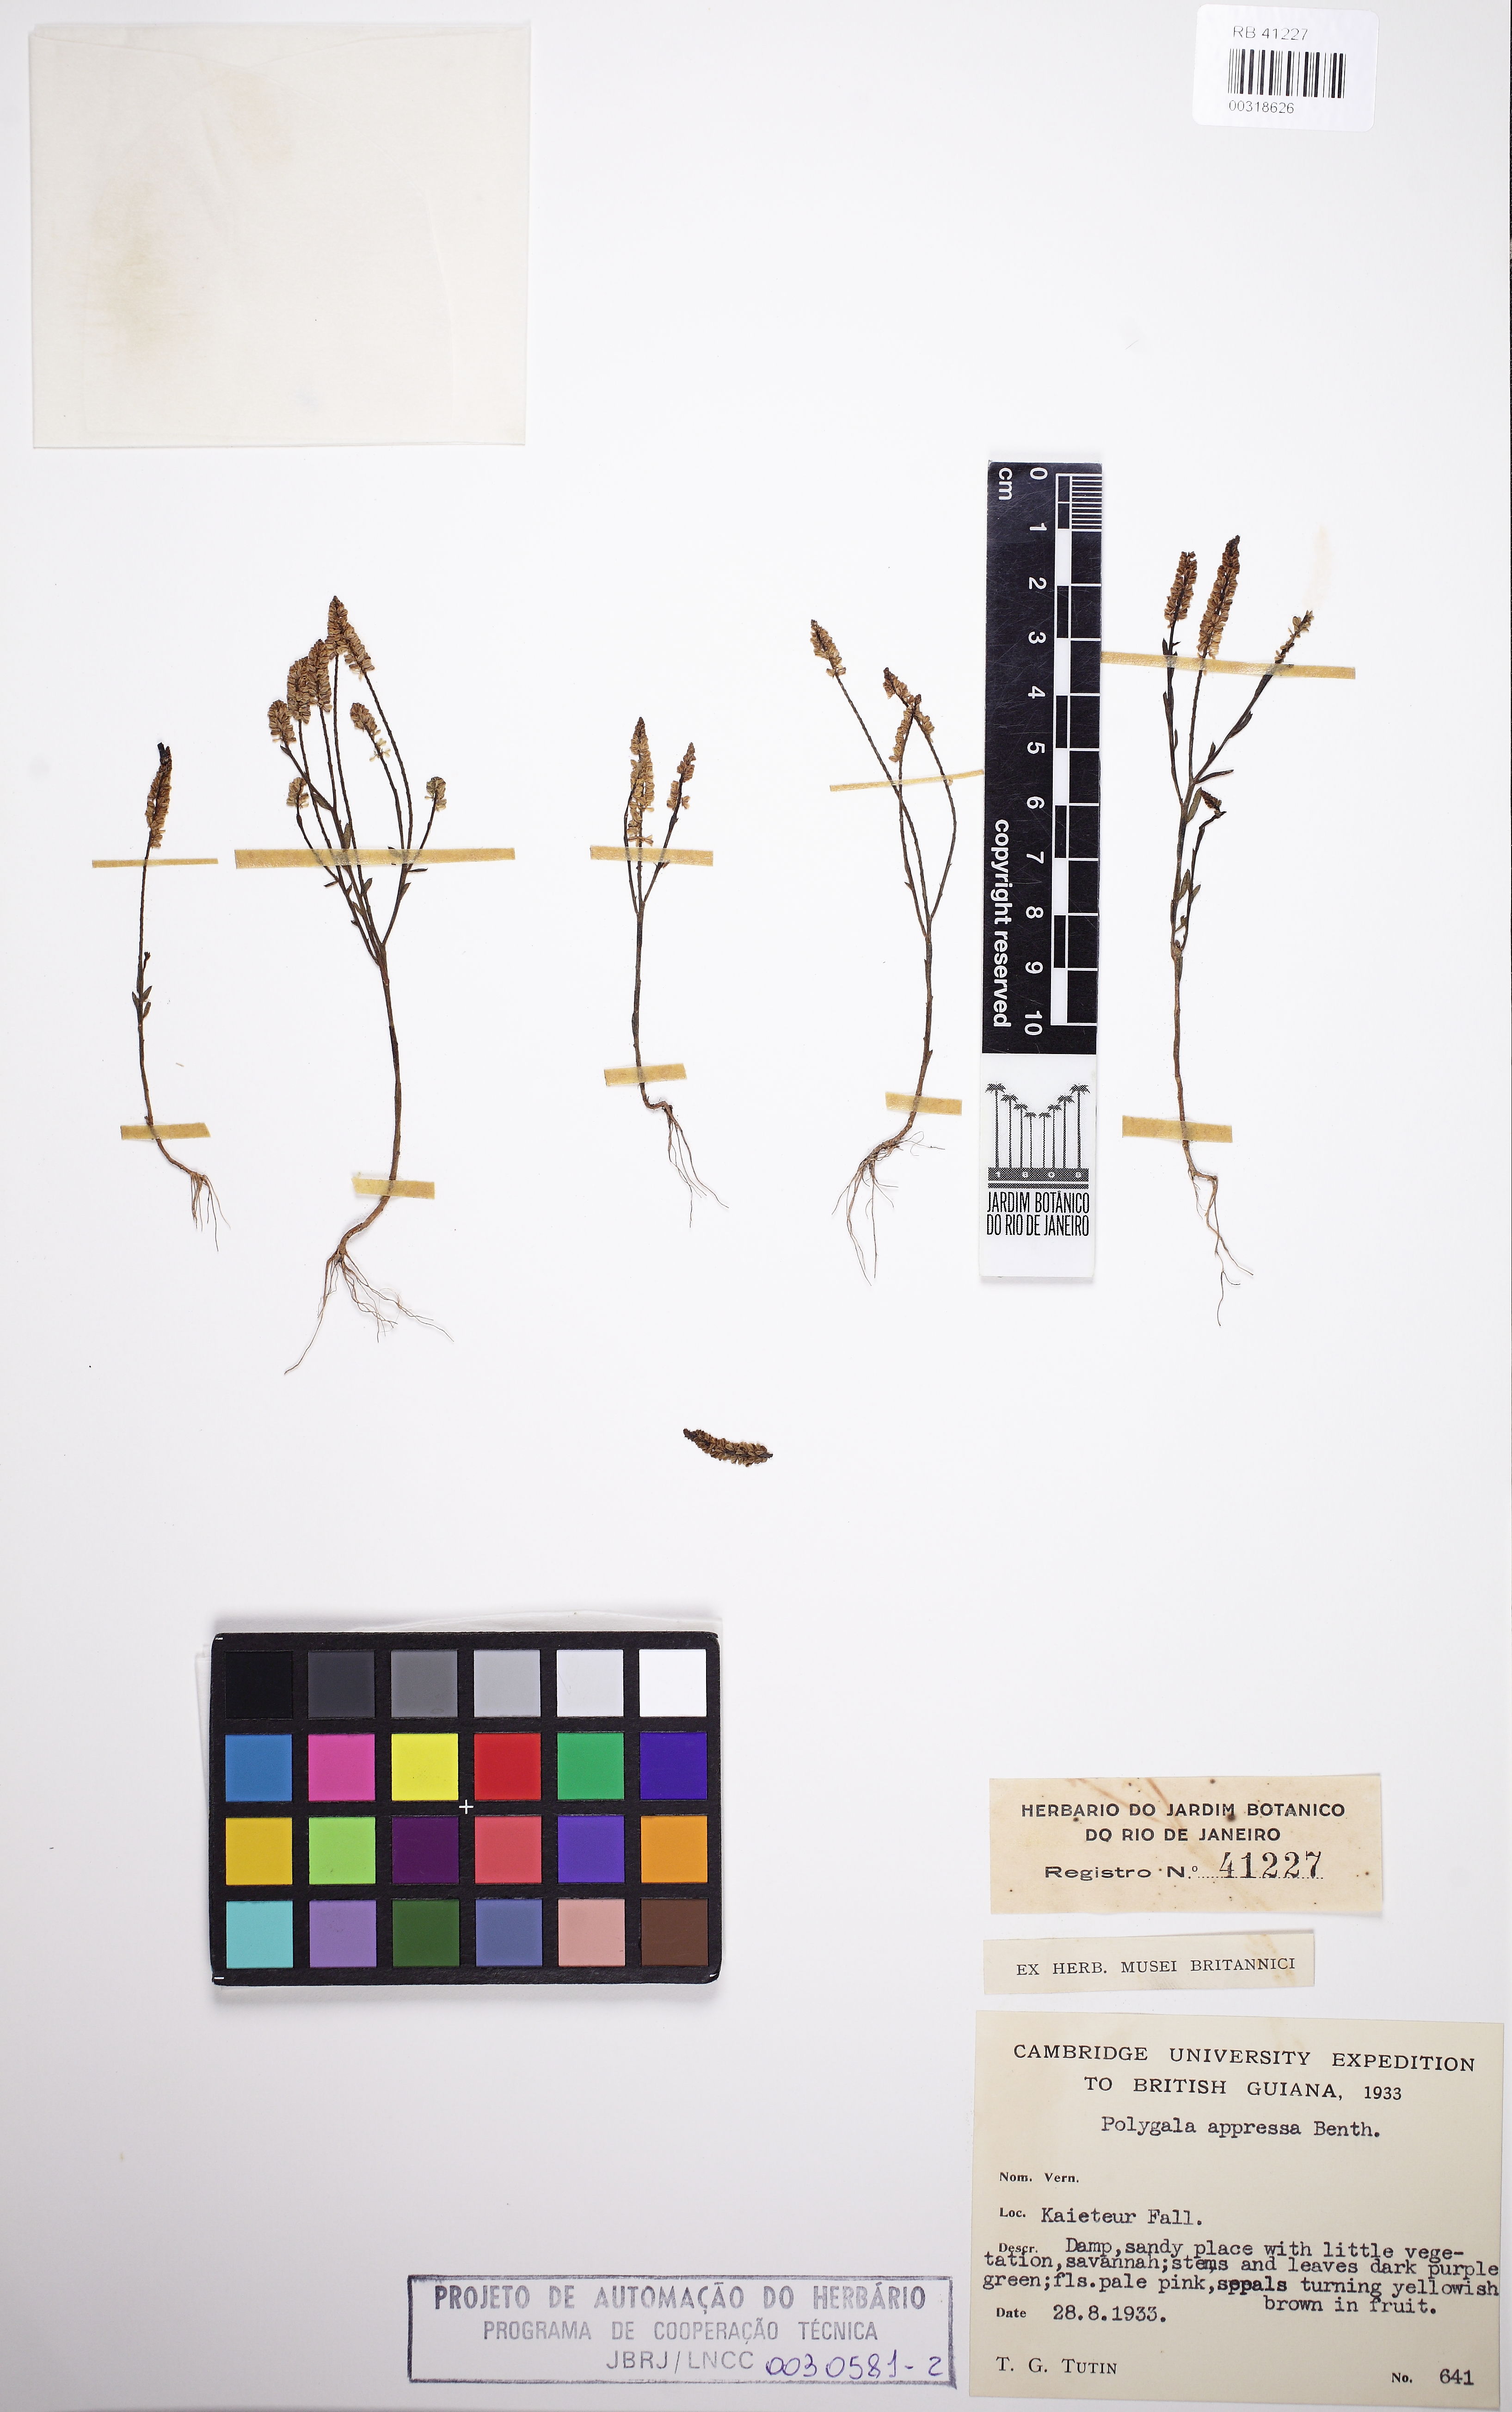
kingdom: Plantae
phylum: Tracheophyta
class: Magnoliopsida
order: Fabales
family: Polygalaceae
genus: Polygala
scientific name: Polygala appressa
